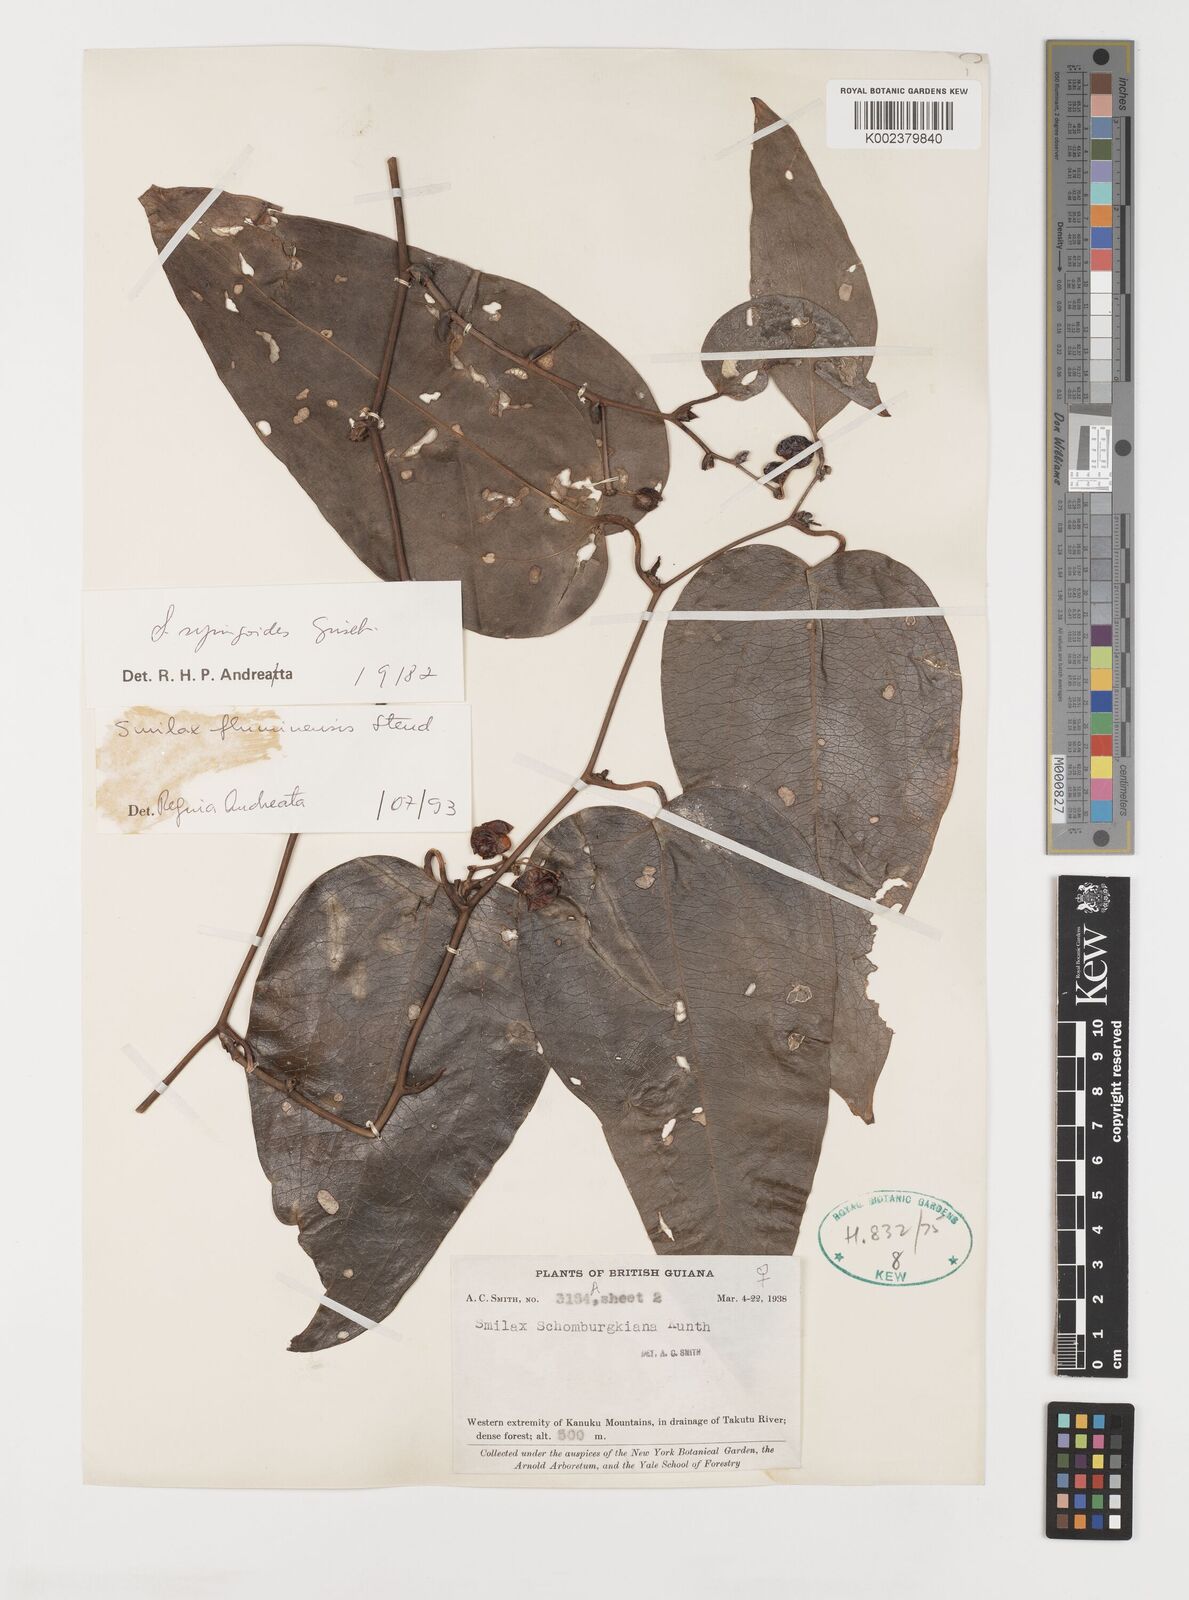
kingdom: Plantae
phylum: Tracheophyta
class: Liliopsida
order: Liliales
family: Smilacaceae
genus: Smilax
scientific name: Smilax fluminensis
